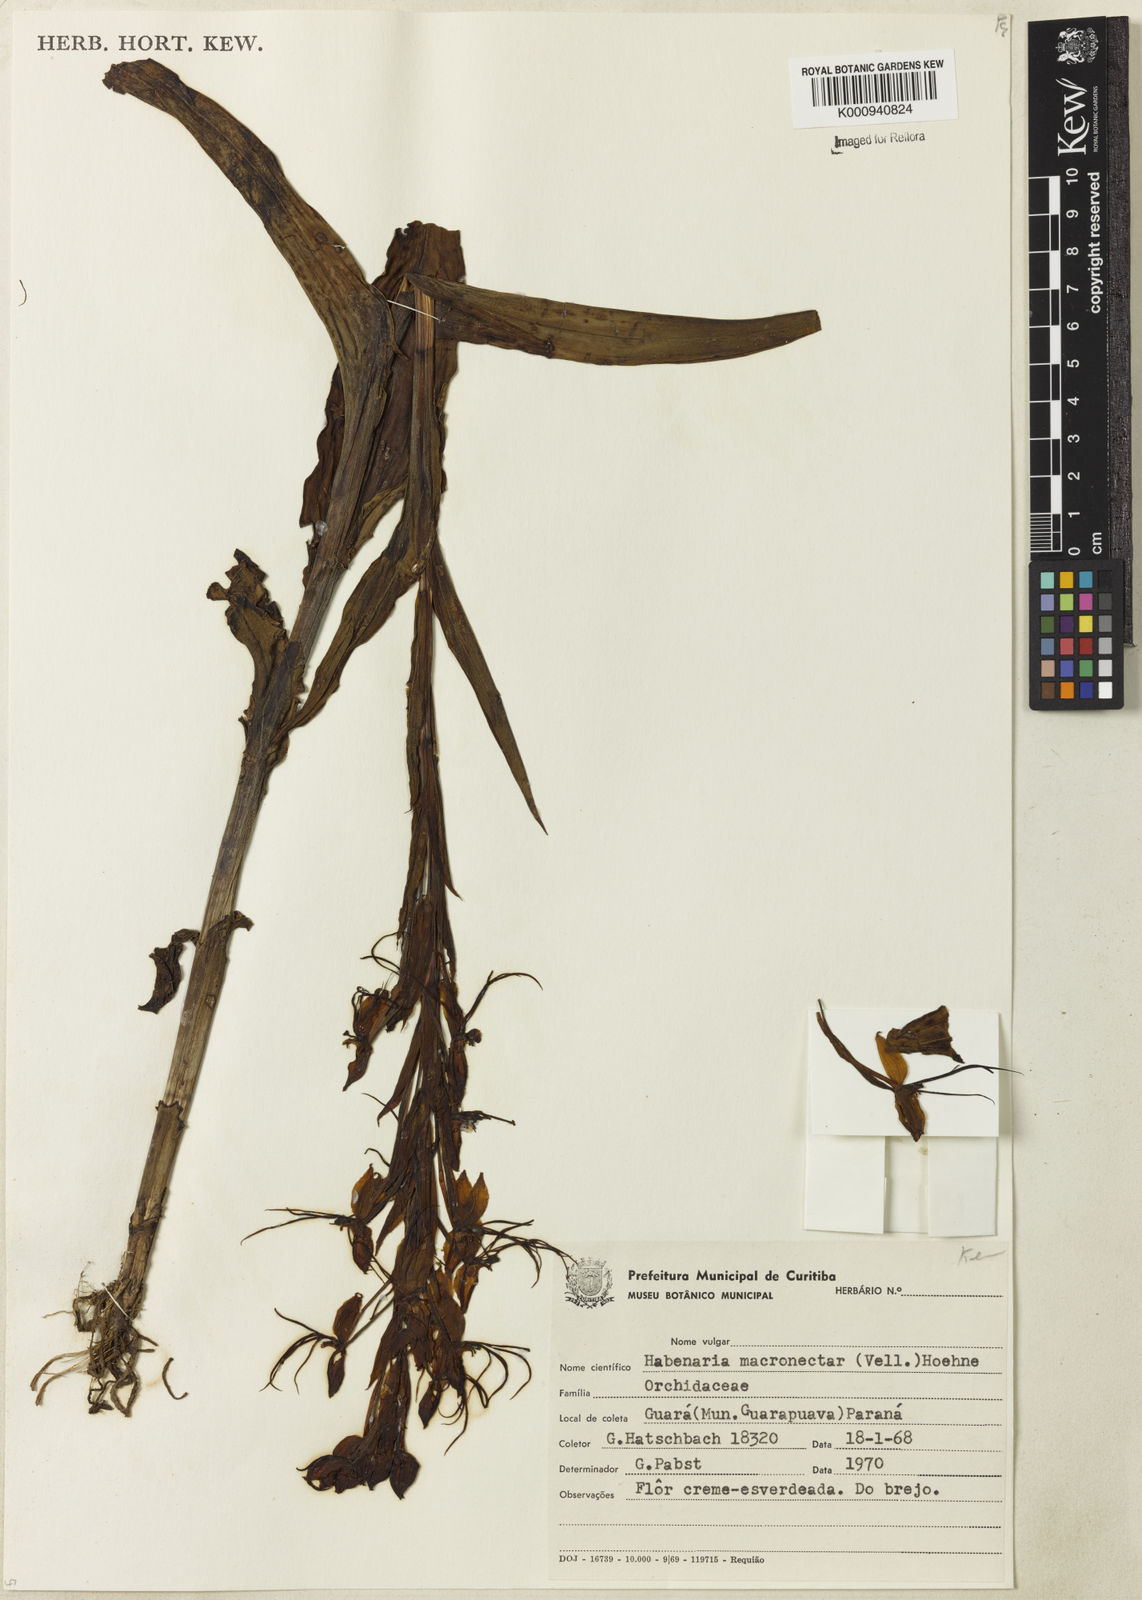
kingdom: Plantae
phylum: Tracheophyta
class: Liliopsida
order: Asparagales
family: Orchidaceae
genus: Habenaria
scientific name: Habenaria macronectar
